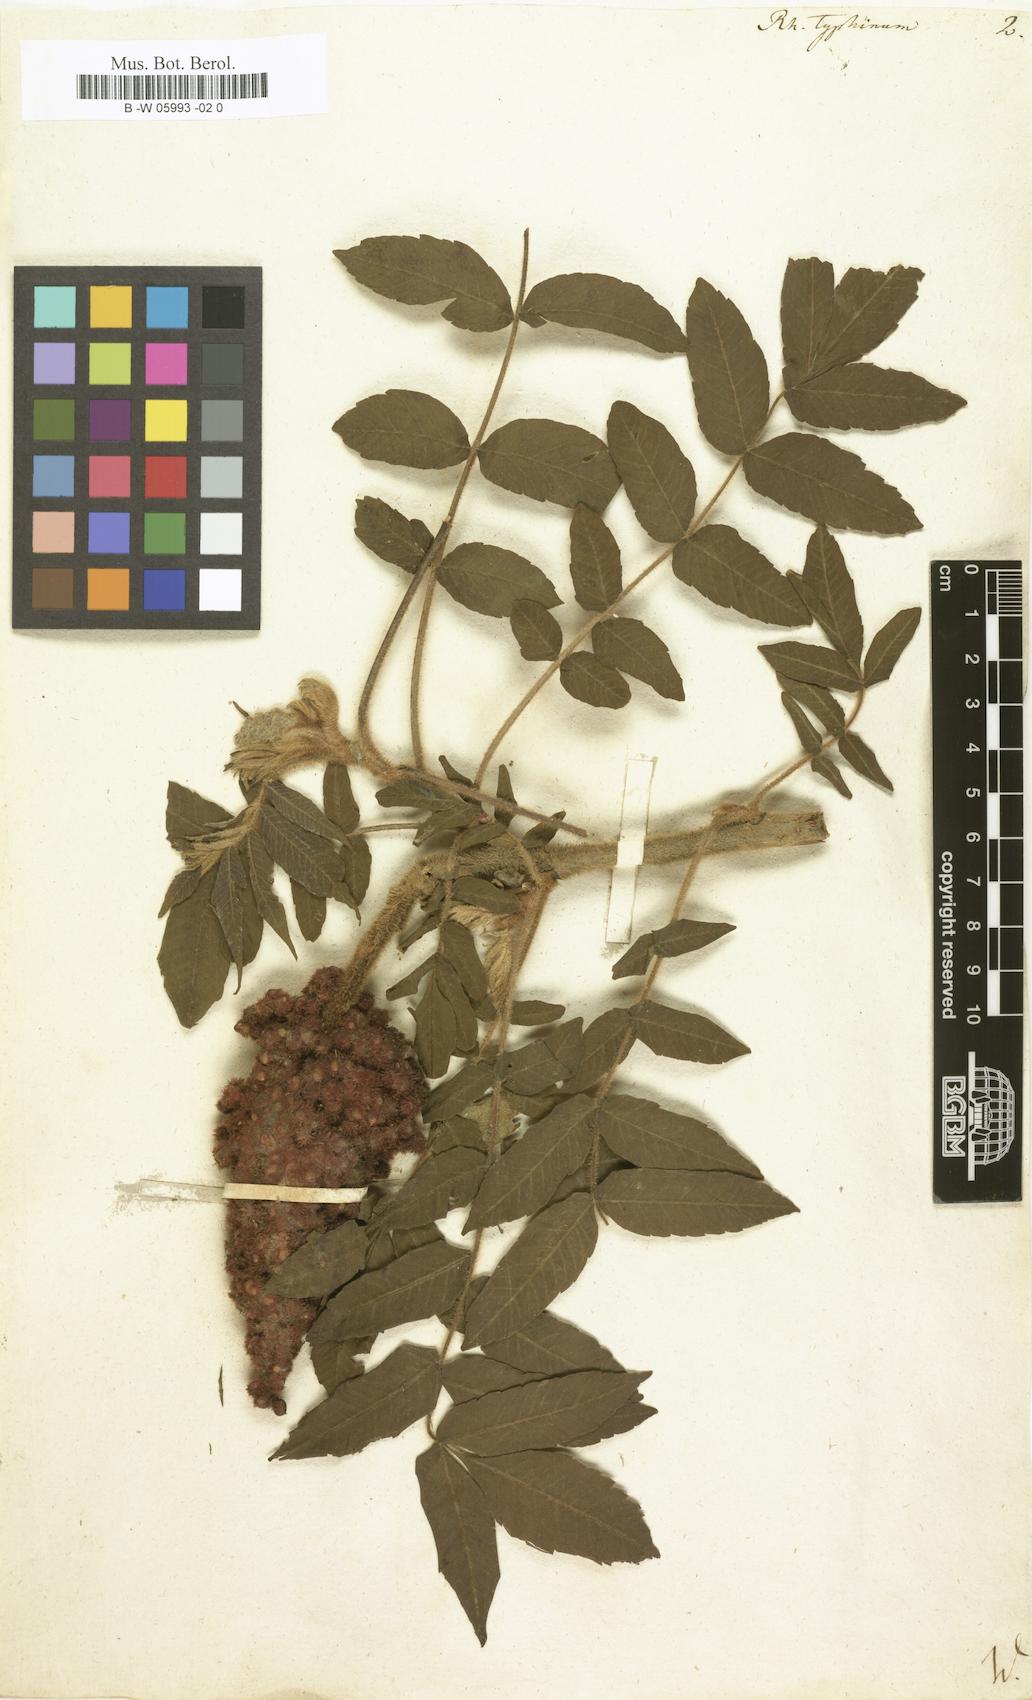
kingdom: Plantae
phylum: Tracheophyta
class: Magnoliopsida
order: Sapindales
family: Anacardiaceae
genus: Rhus
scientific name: Rhus typhina
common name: Staghorn sumac
